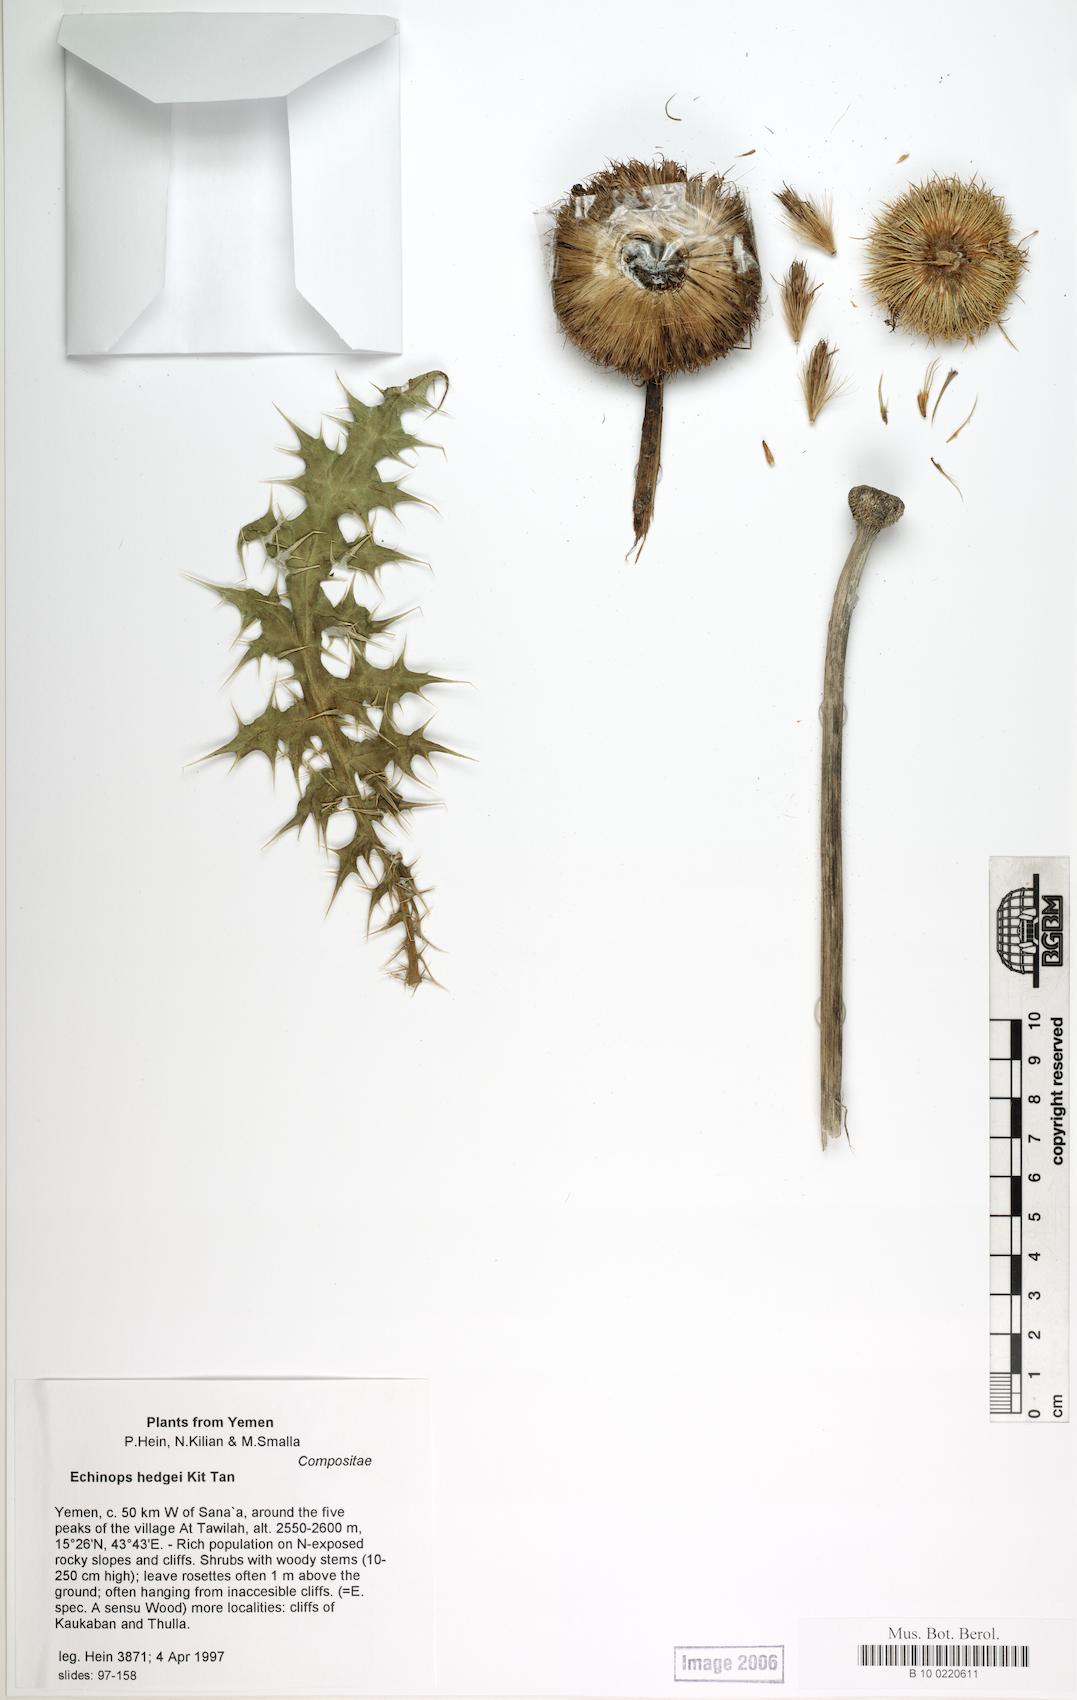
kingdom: Plantae
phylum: Tracheophyta
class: Magnoliopsida
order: Caryophyllales
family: Caryophyllaceae
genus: Stellaria
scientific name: Stellaria apetala
